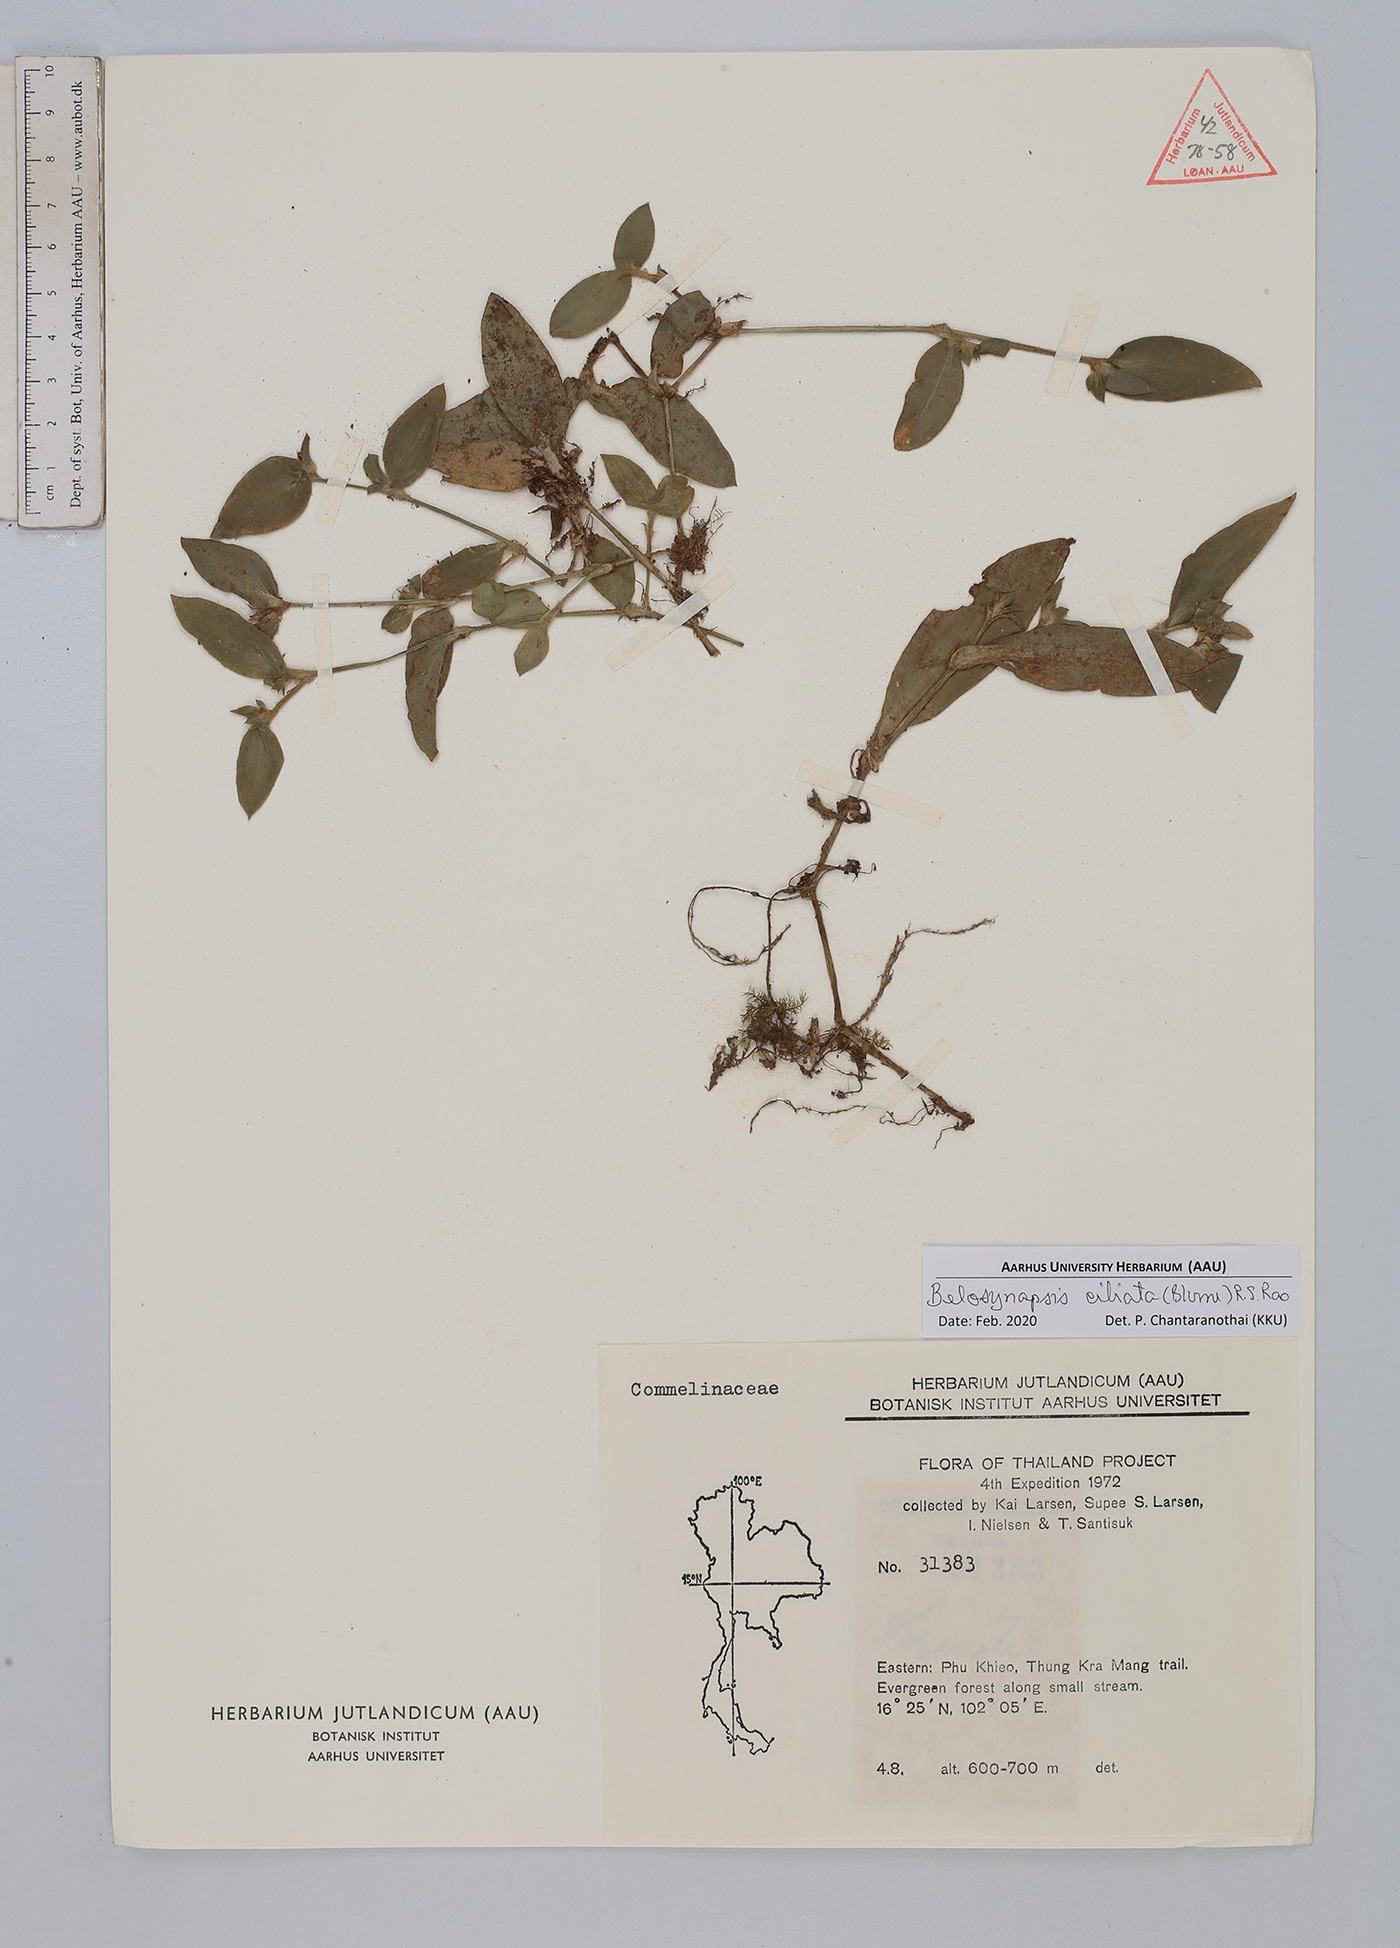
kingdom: Plantae
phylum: Tracheophyta
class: Liliopsida
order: Commelinales
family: Commelinaceae
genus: Cyanotis
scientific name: Cyanotis ciliata
